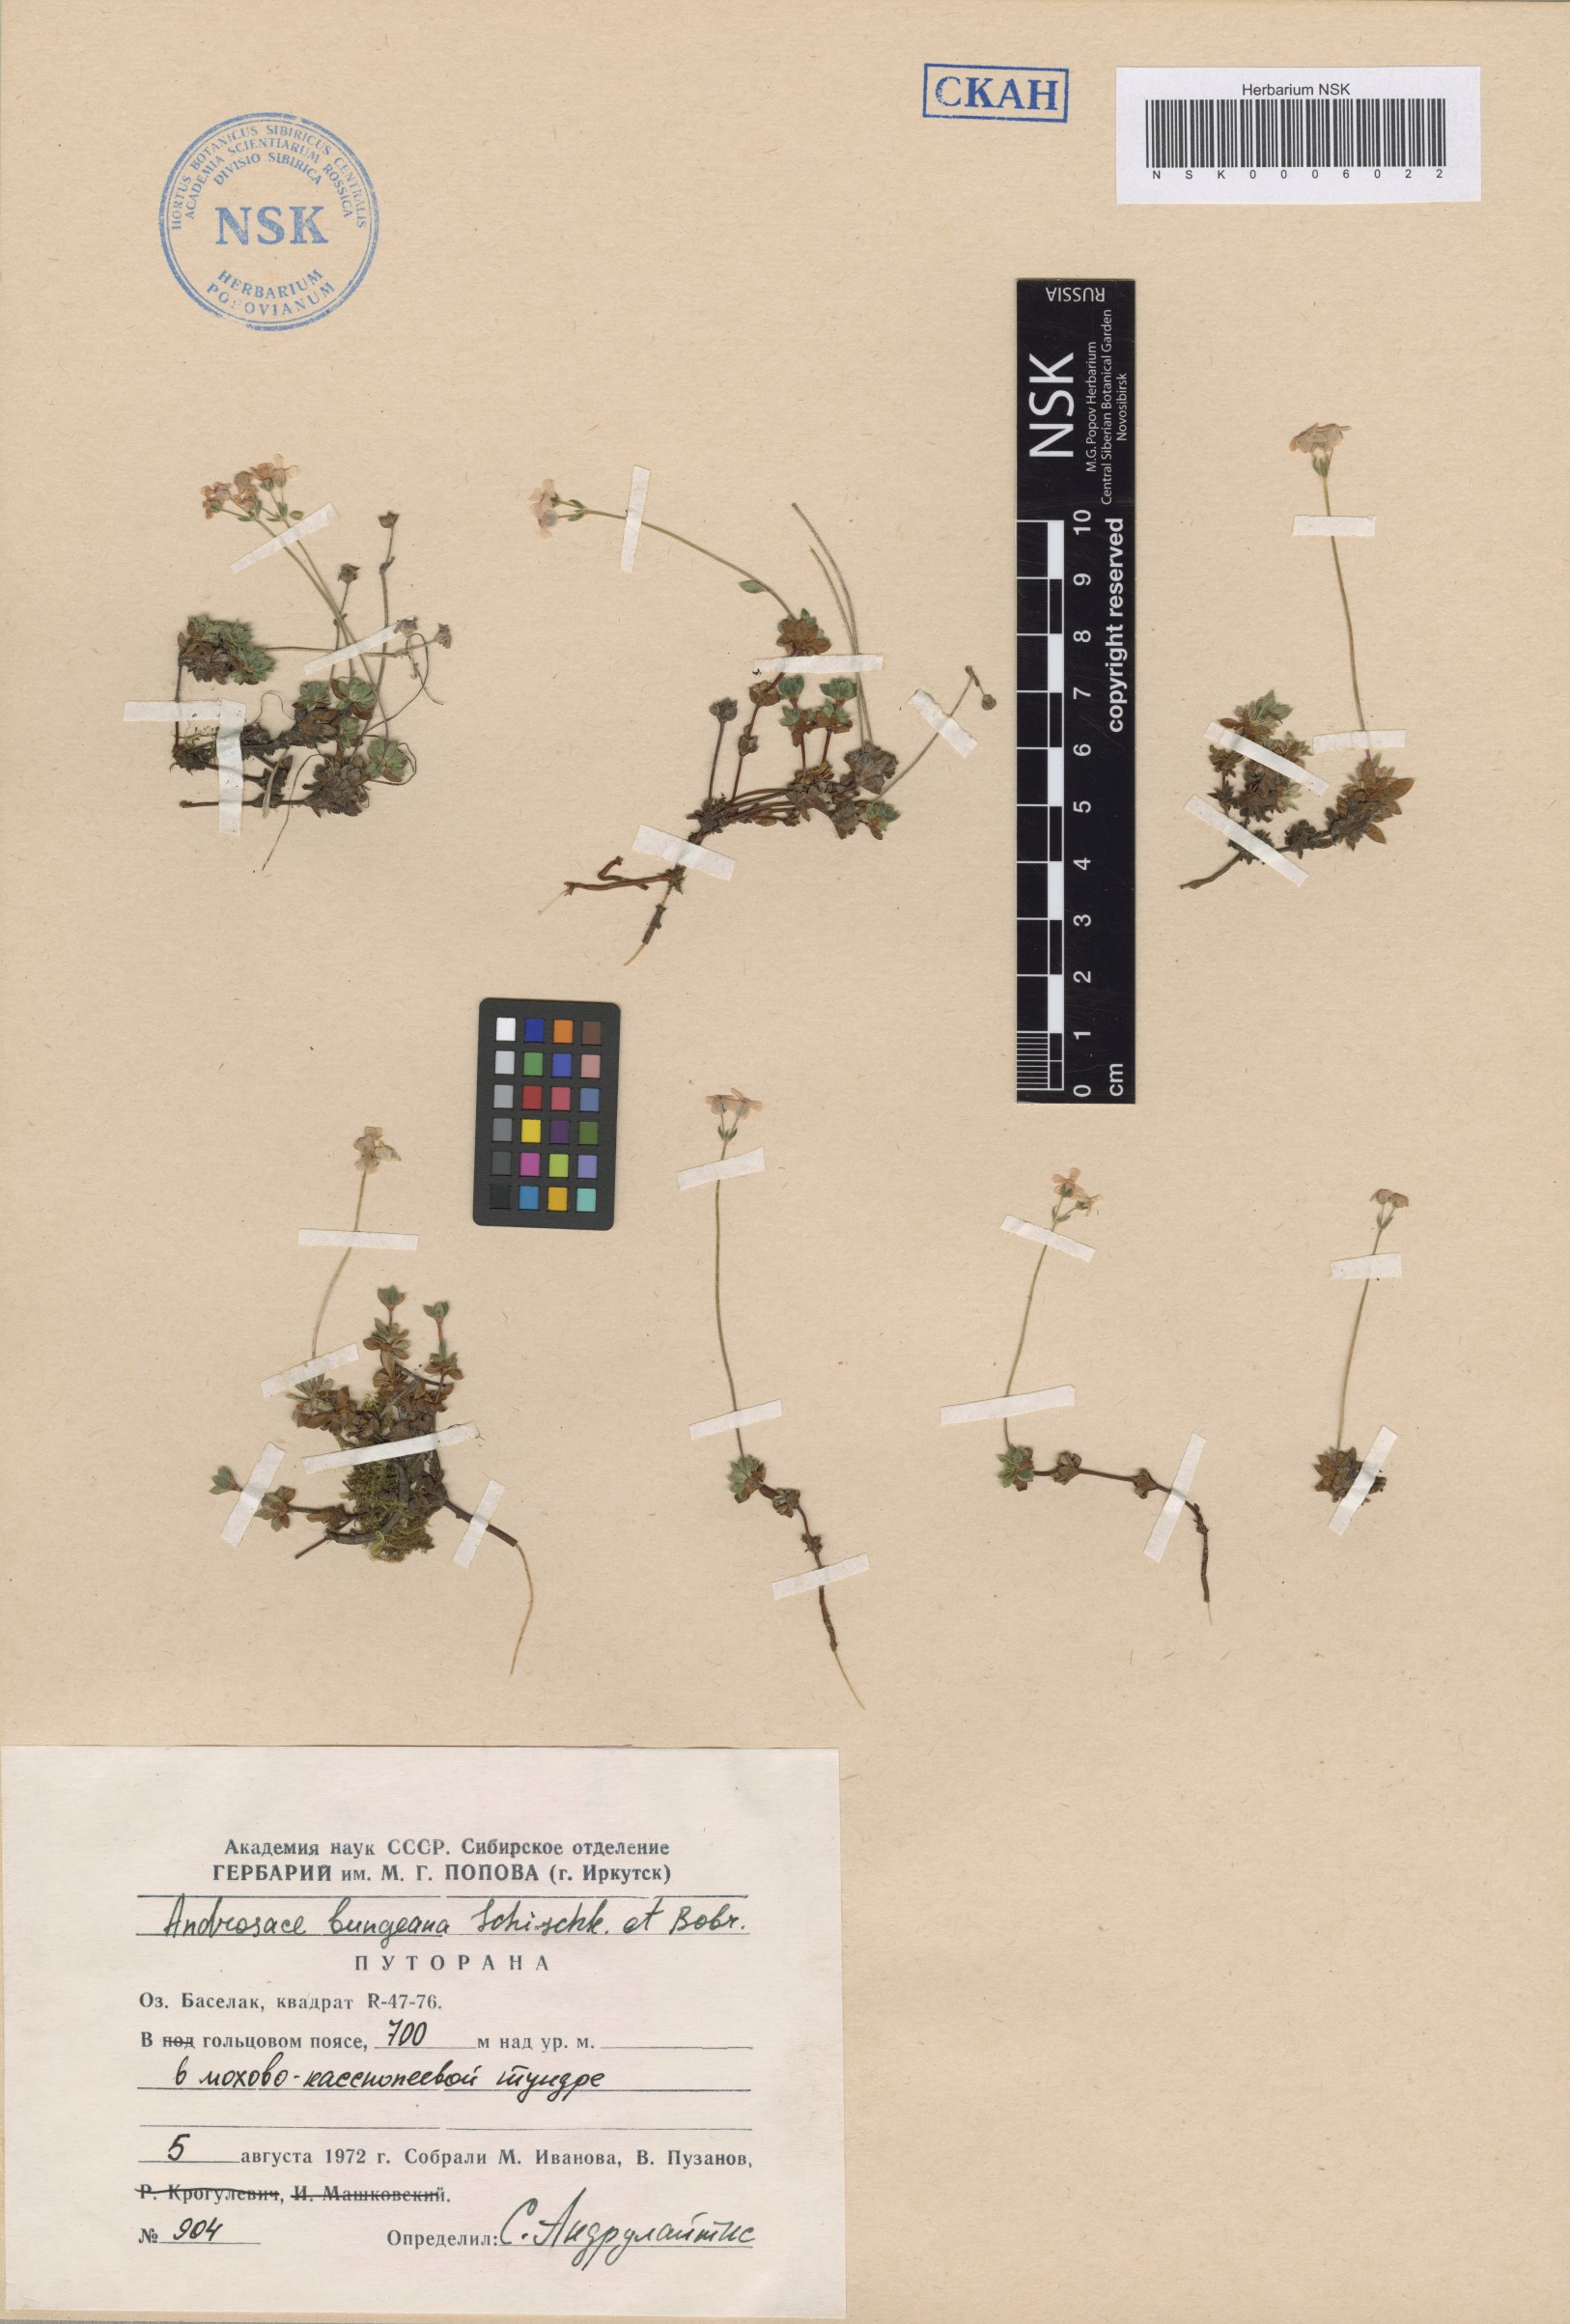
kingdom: Plantae
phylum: Tracheophyta
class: Magnoliopsida
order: Ericales
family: Primulaceae
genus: Androsace
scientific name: Androsace bungeana
